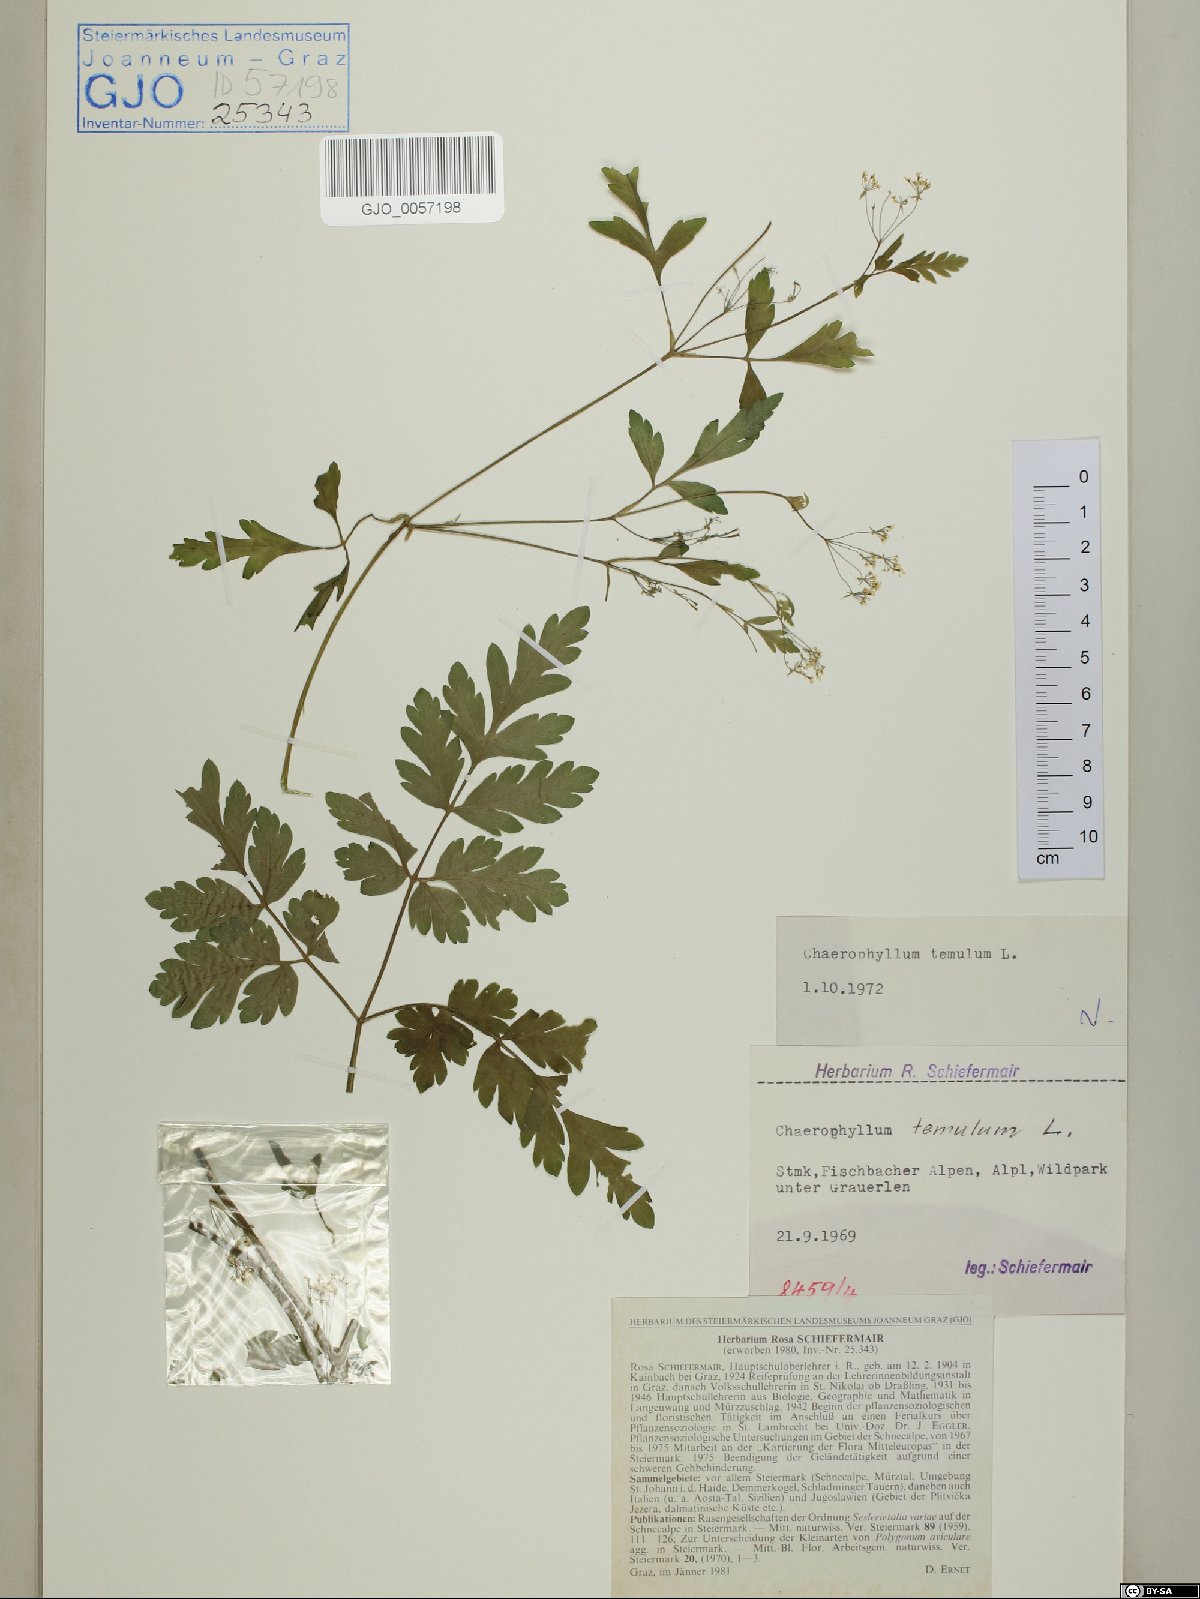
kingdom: Plantae
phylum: Tracheophyta
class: Magnoliopsida
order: Apiales
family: Apiaceae
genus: Chaerophyllum
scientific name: Chaerophyllum temulum
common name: Rough chervil
